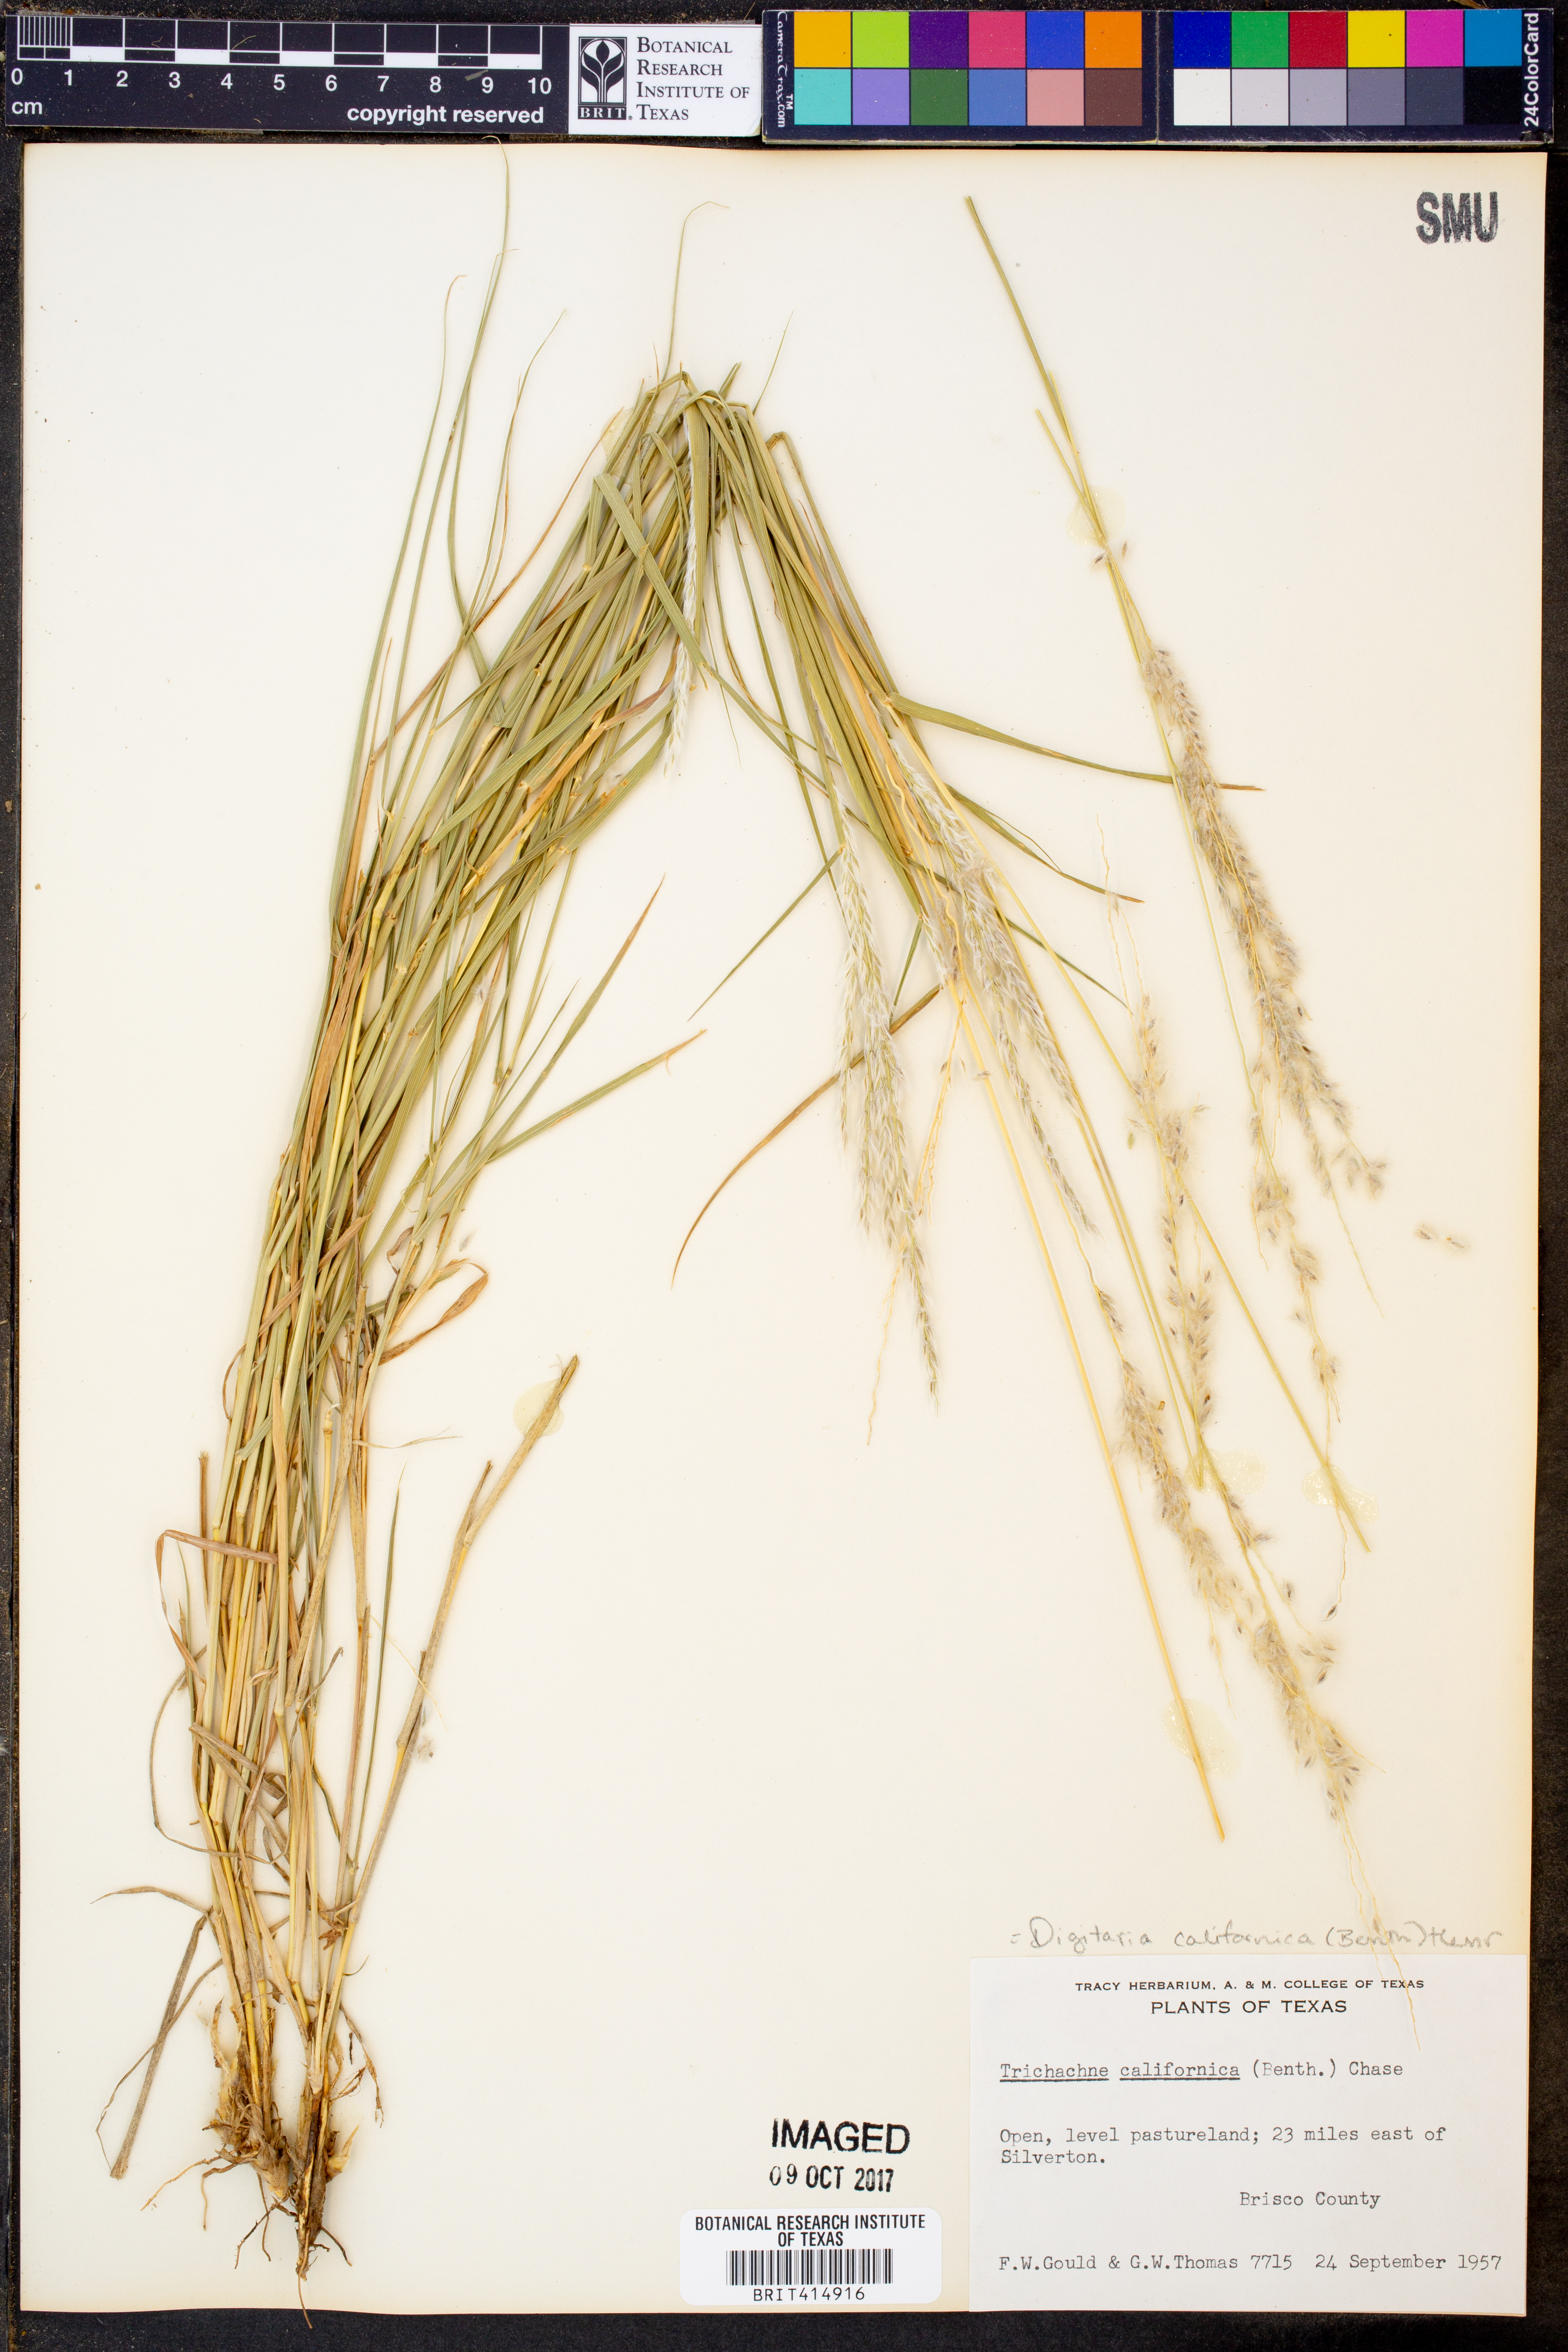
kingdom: Plantae
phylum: Tracheophyta
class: Liliopsida
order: Poales
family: Poaceae
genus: Digitaria
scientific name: Digitaria californica
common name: Arizona cottontop
